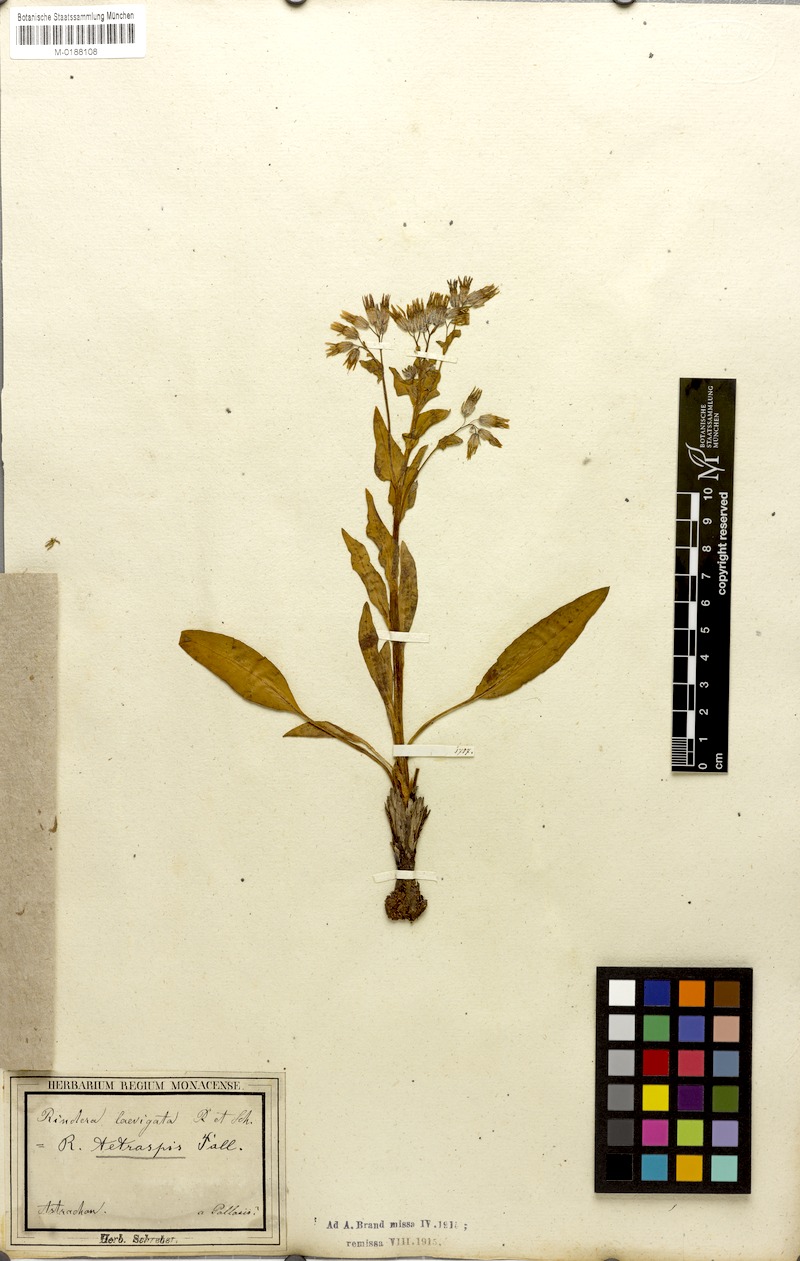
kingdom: Plantae
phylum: Tracheophyta
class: Magnoliopsida
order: Boraginales
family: Boraginaceae
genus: Rindera
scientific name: Rindera tetraspis
